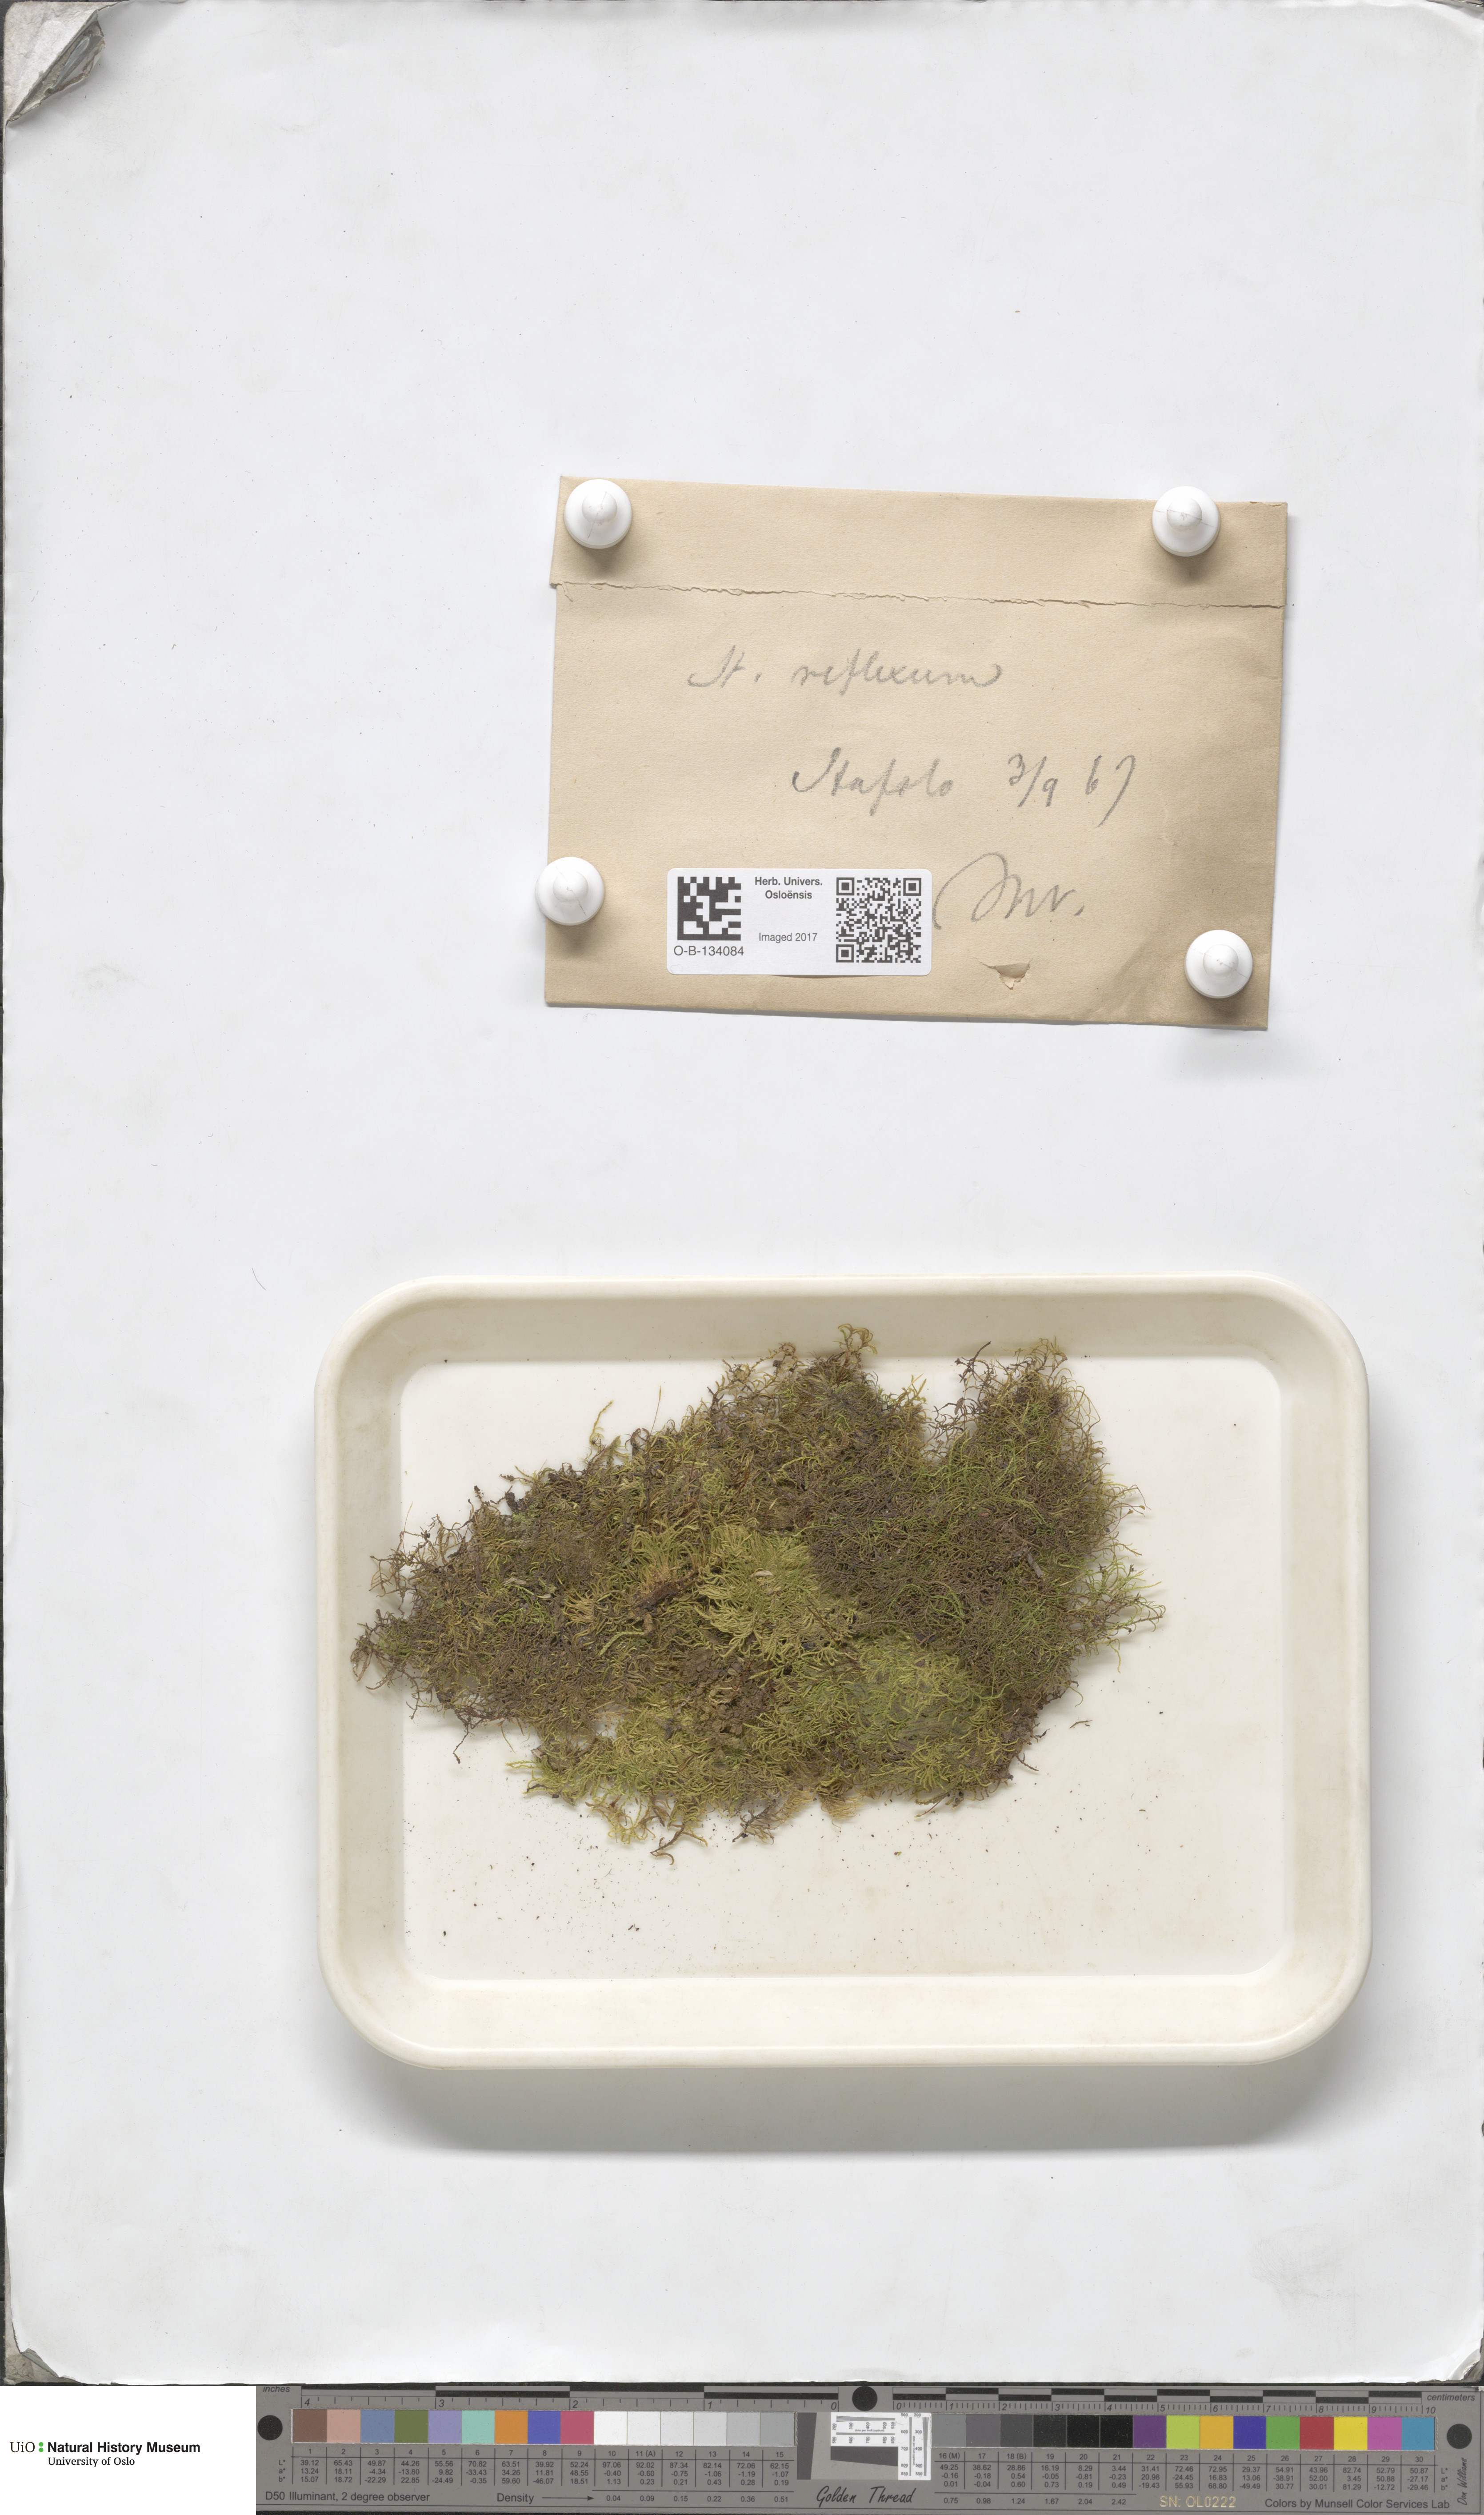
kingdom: Plantae
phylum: Bryophyta
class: Bryopsida
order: Hypnales
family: Brachytheciaceae
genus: Sciuro-hypnum
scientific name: Sciuro-hypnum reflexum
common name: Reflexed feather-moss
